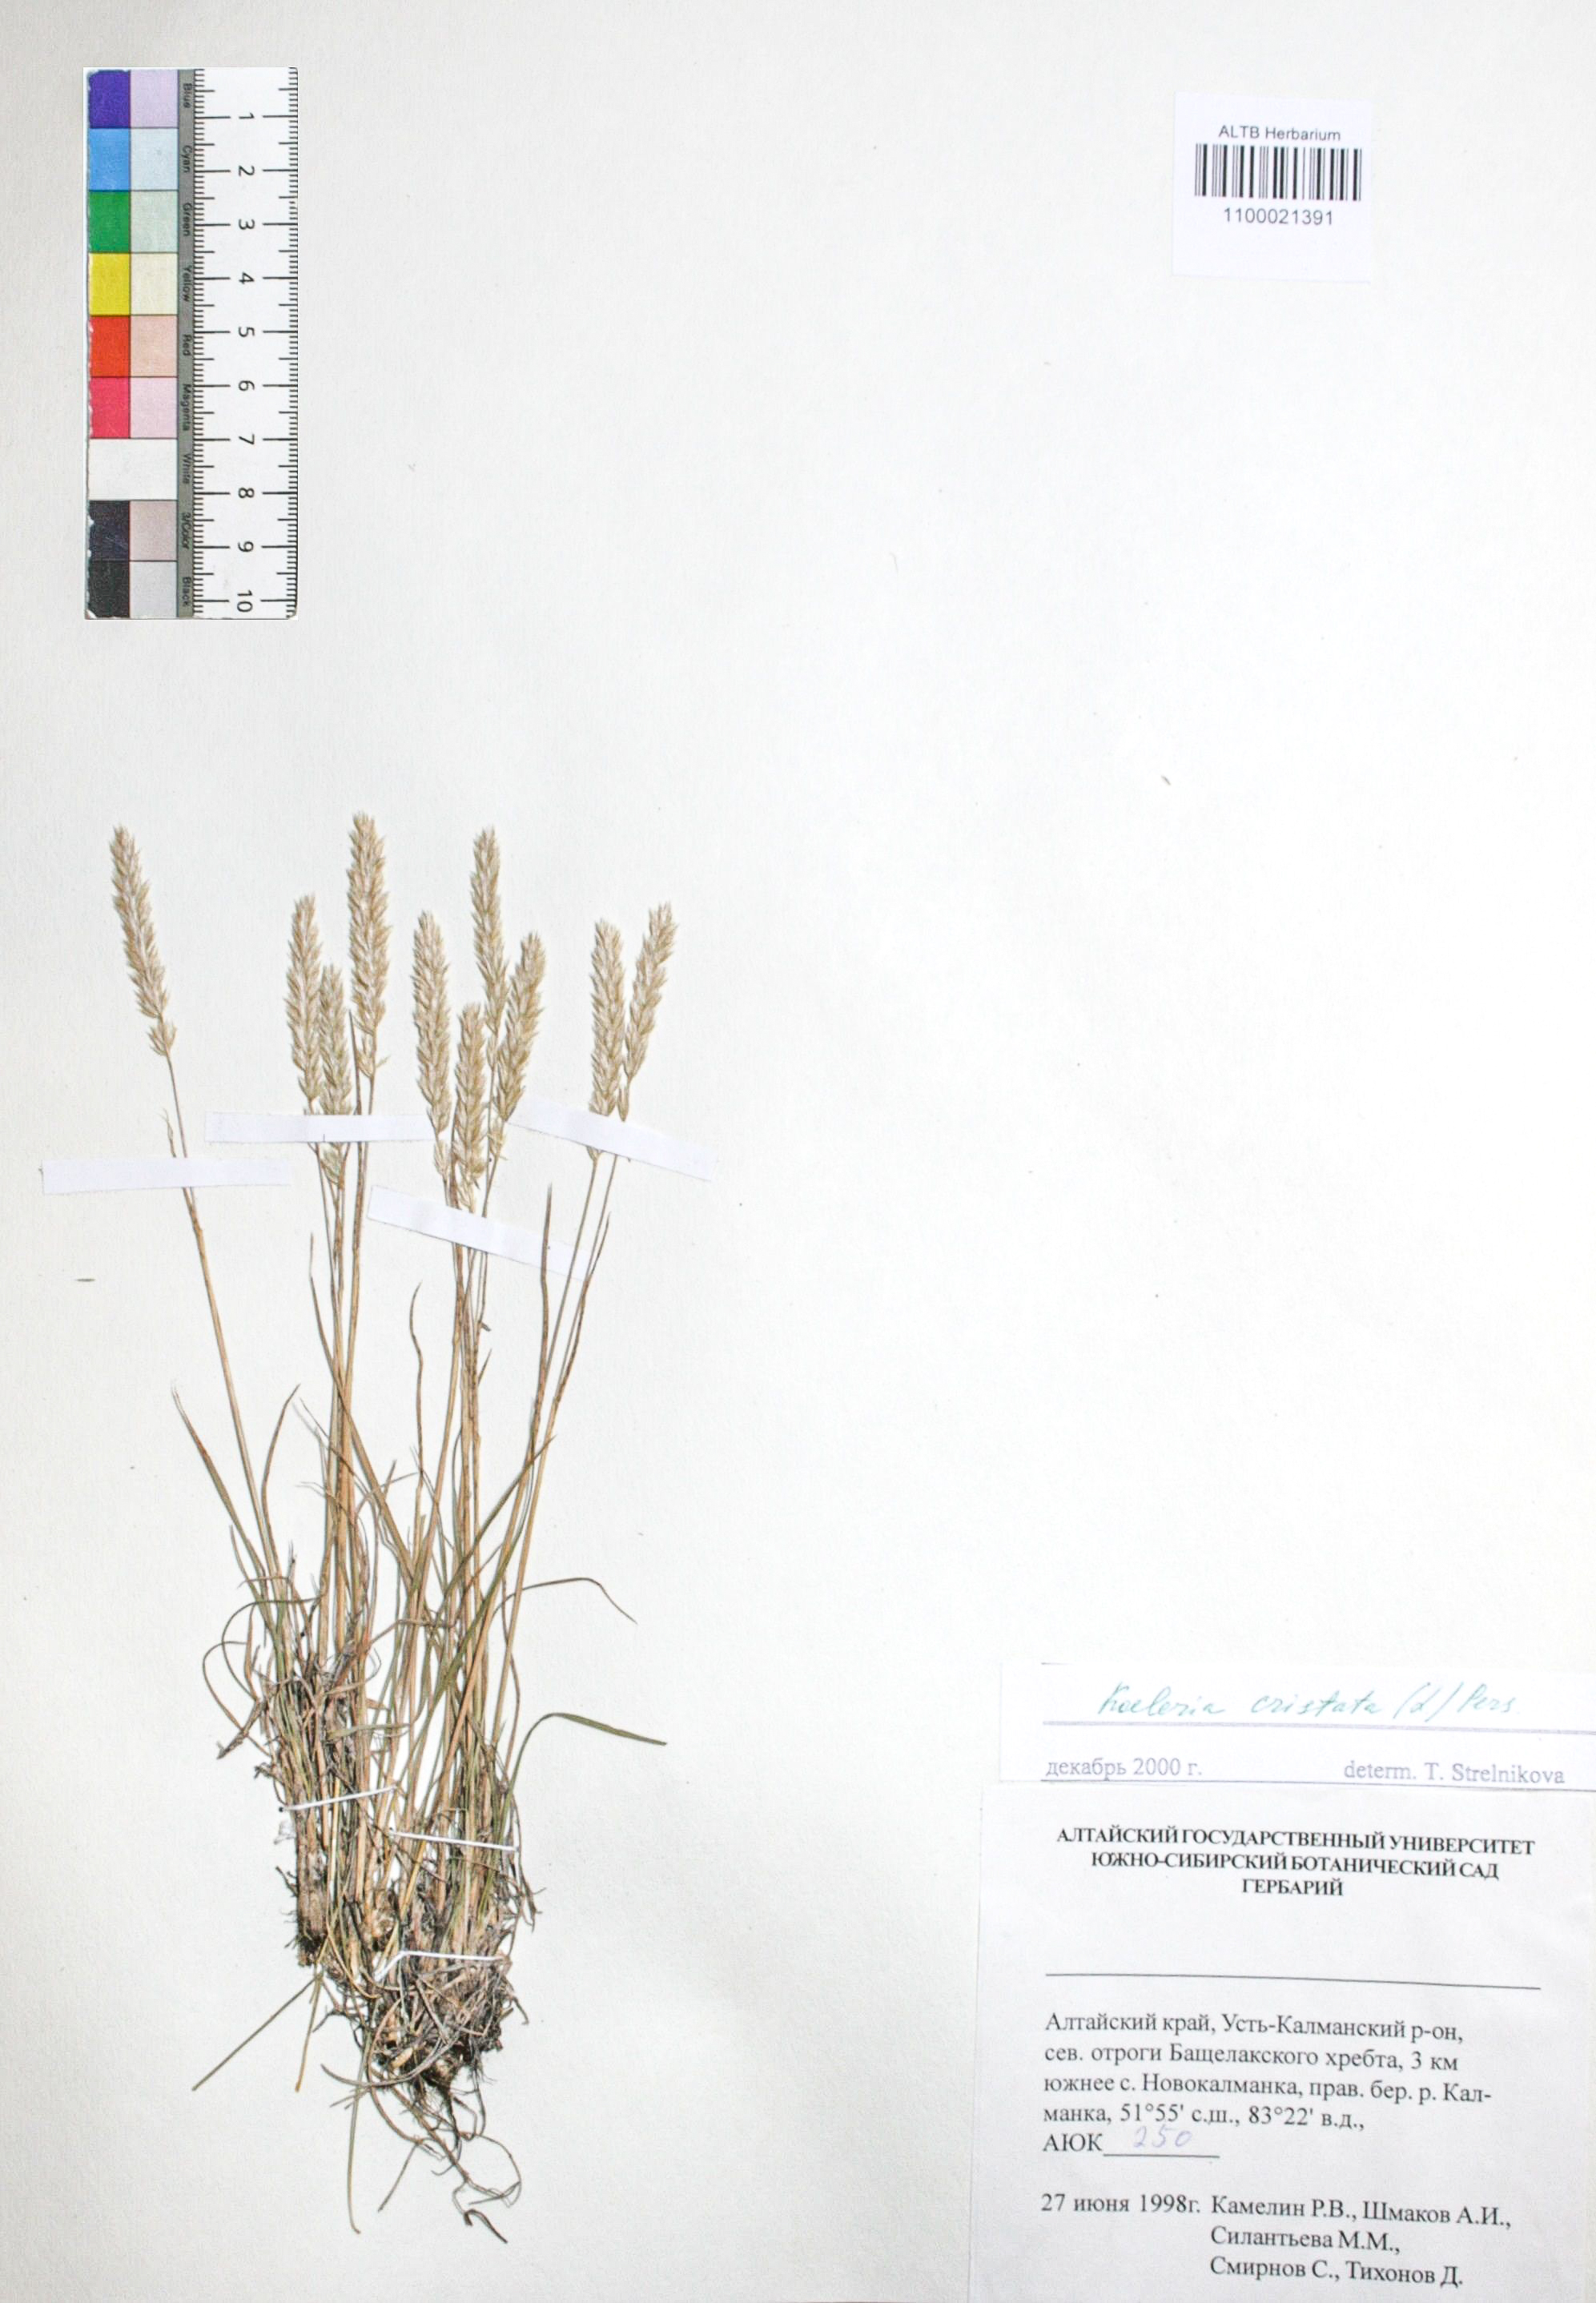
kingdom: Plantae
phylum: Tracheophyta
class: Liliopsida
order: Poales
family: Poaceae
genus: Koeleria
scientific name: Koeleria pyramidata
